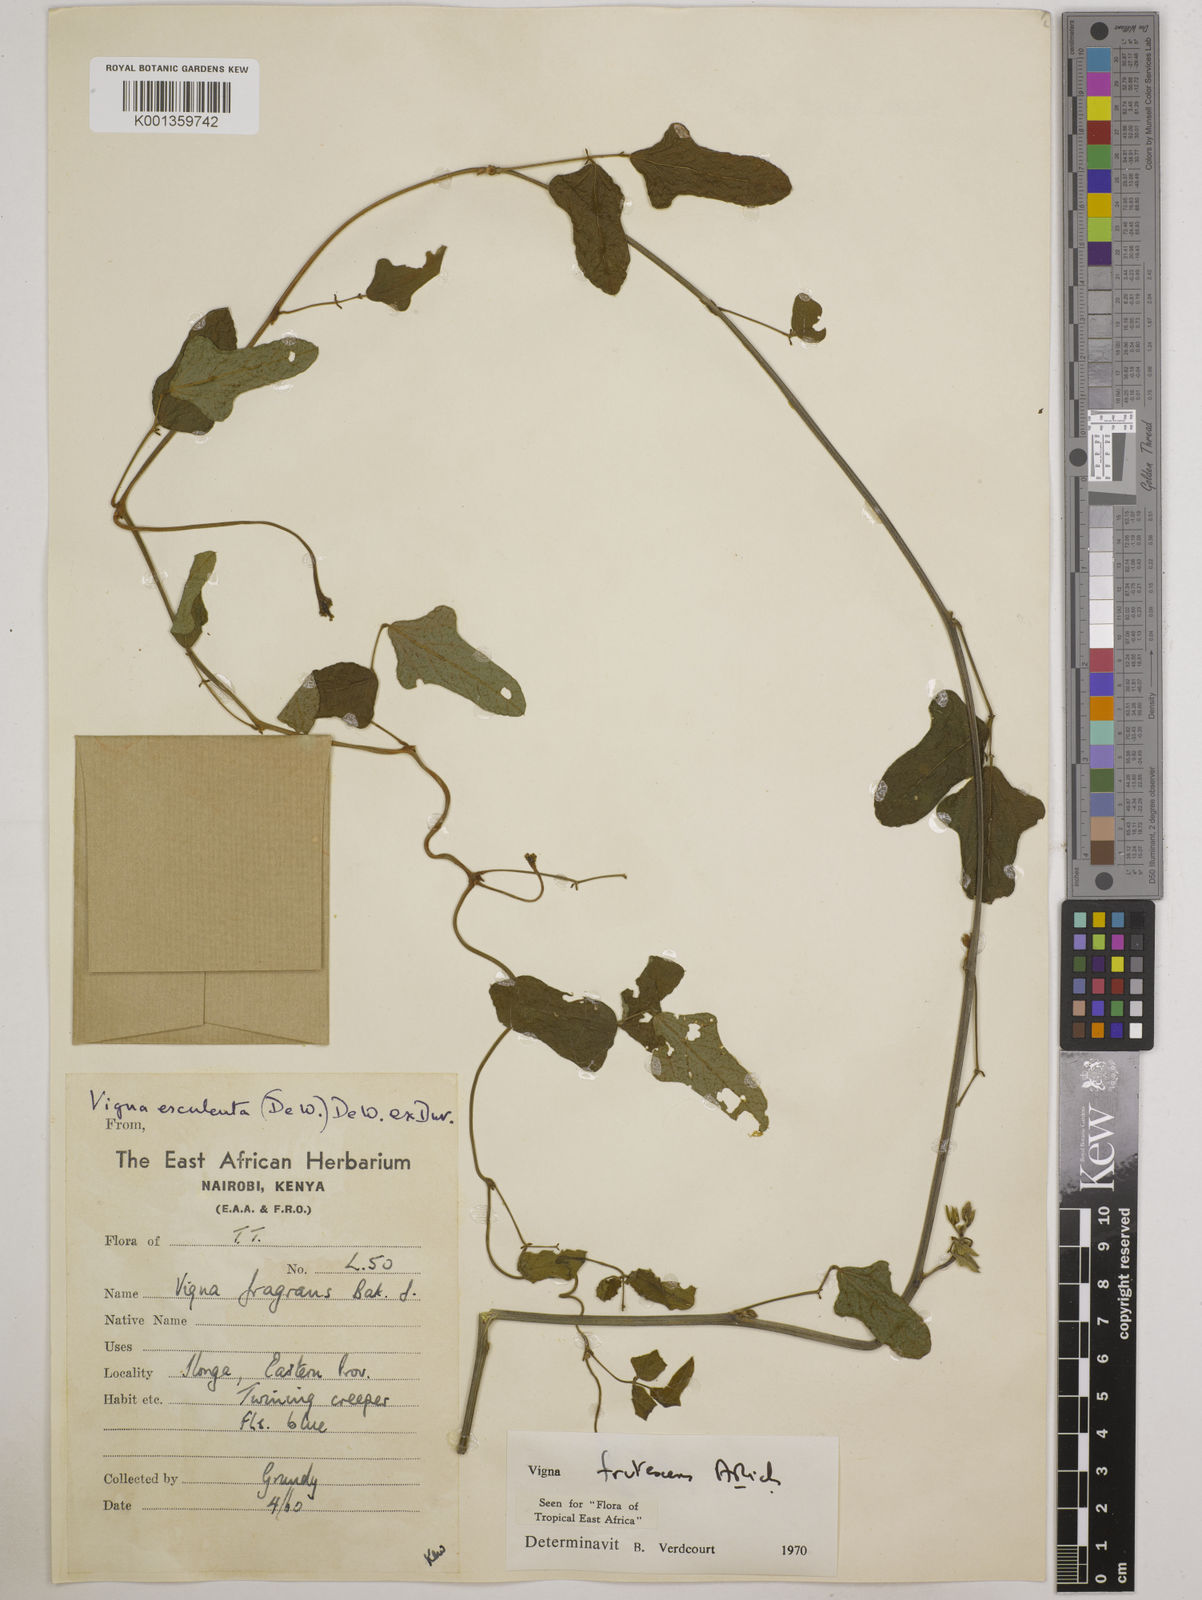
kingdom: Plantae
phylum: Tracheophyta
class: Magnoliopsida
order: Fabales
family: Fabaceae
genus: Vigna
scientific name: Vigna frutescens
